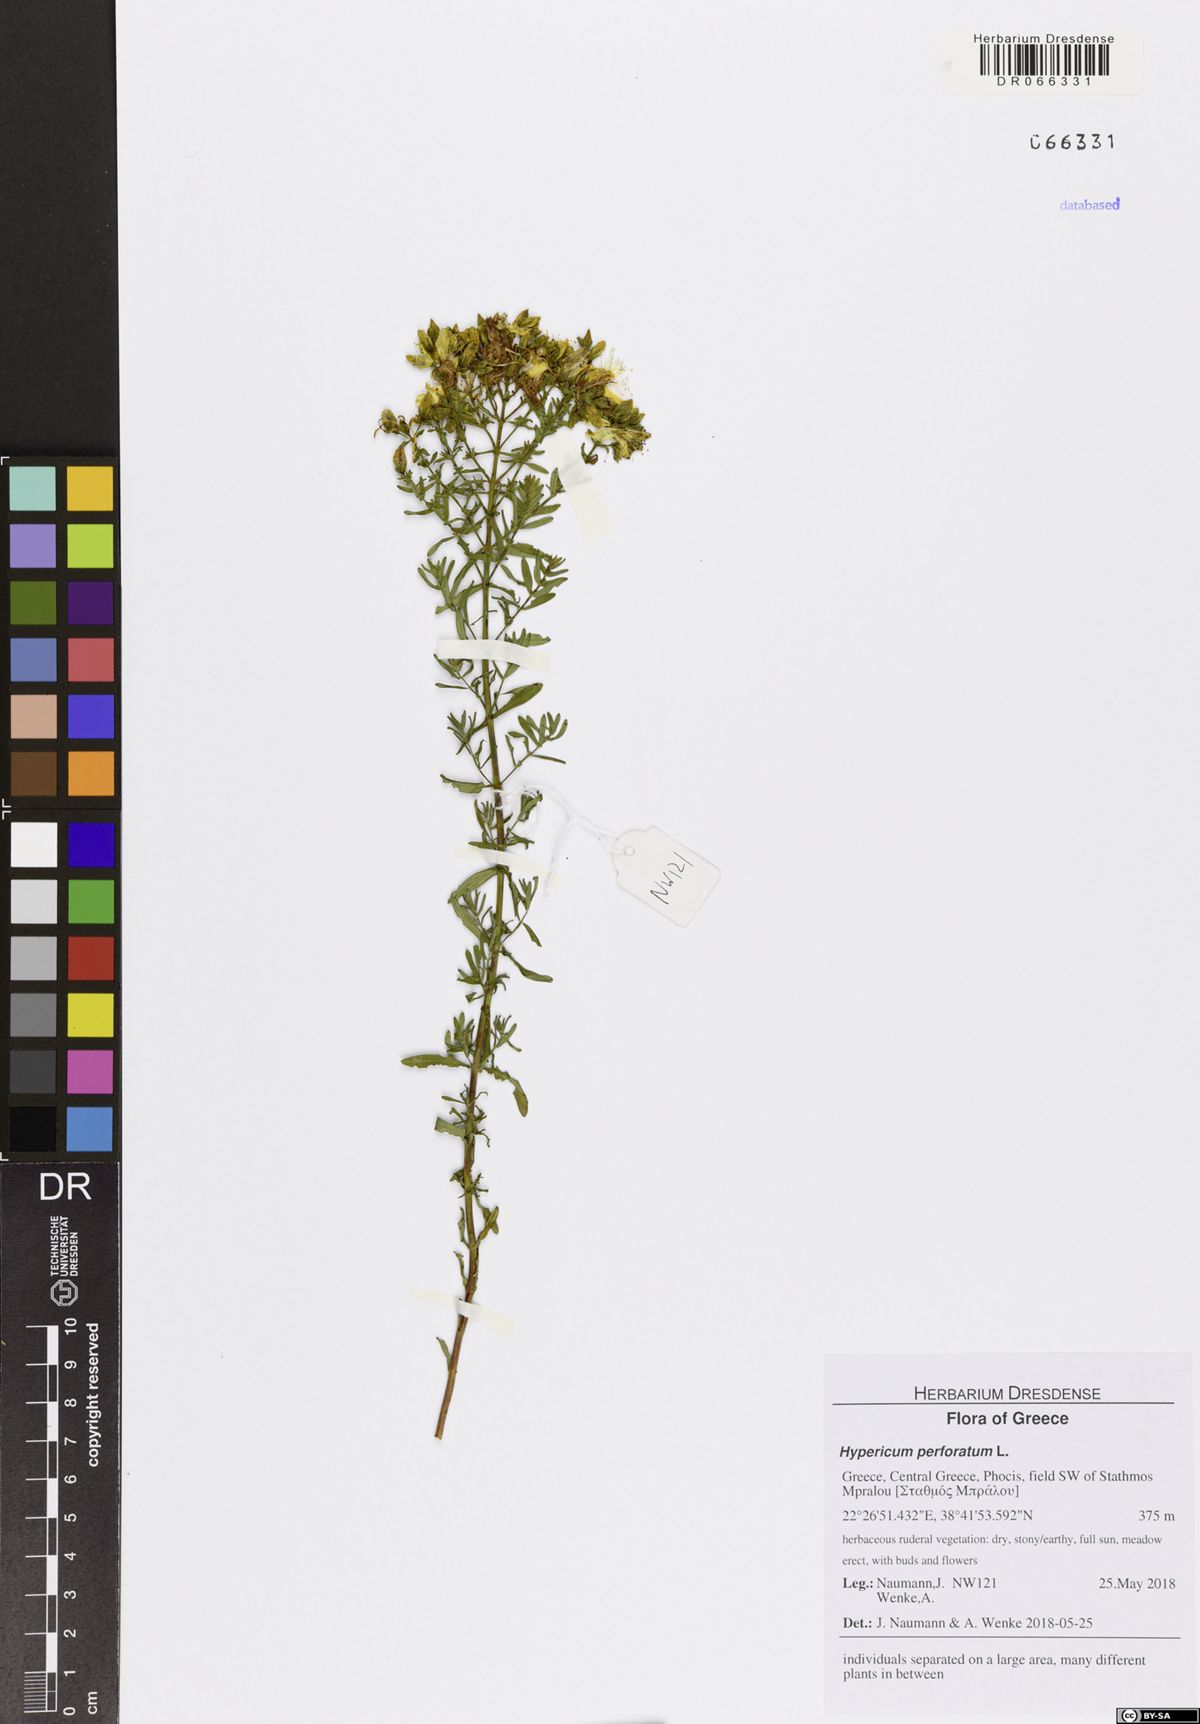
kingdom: Plantae
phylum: Tracheophyta
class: Magnoliopsida
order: Malpighiales
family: Hypericaceae
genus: Hypericum
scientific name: Hypericum perforatum
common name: Common st. johnswort
